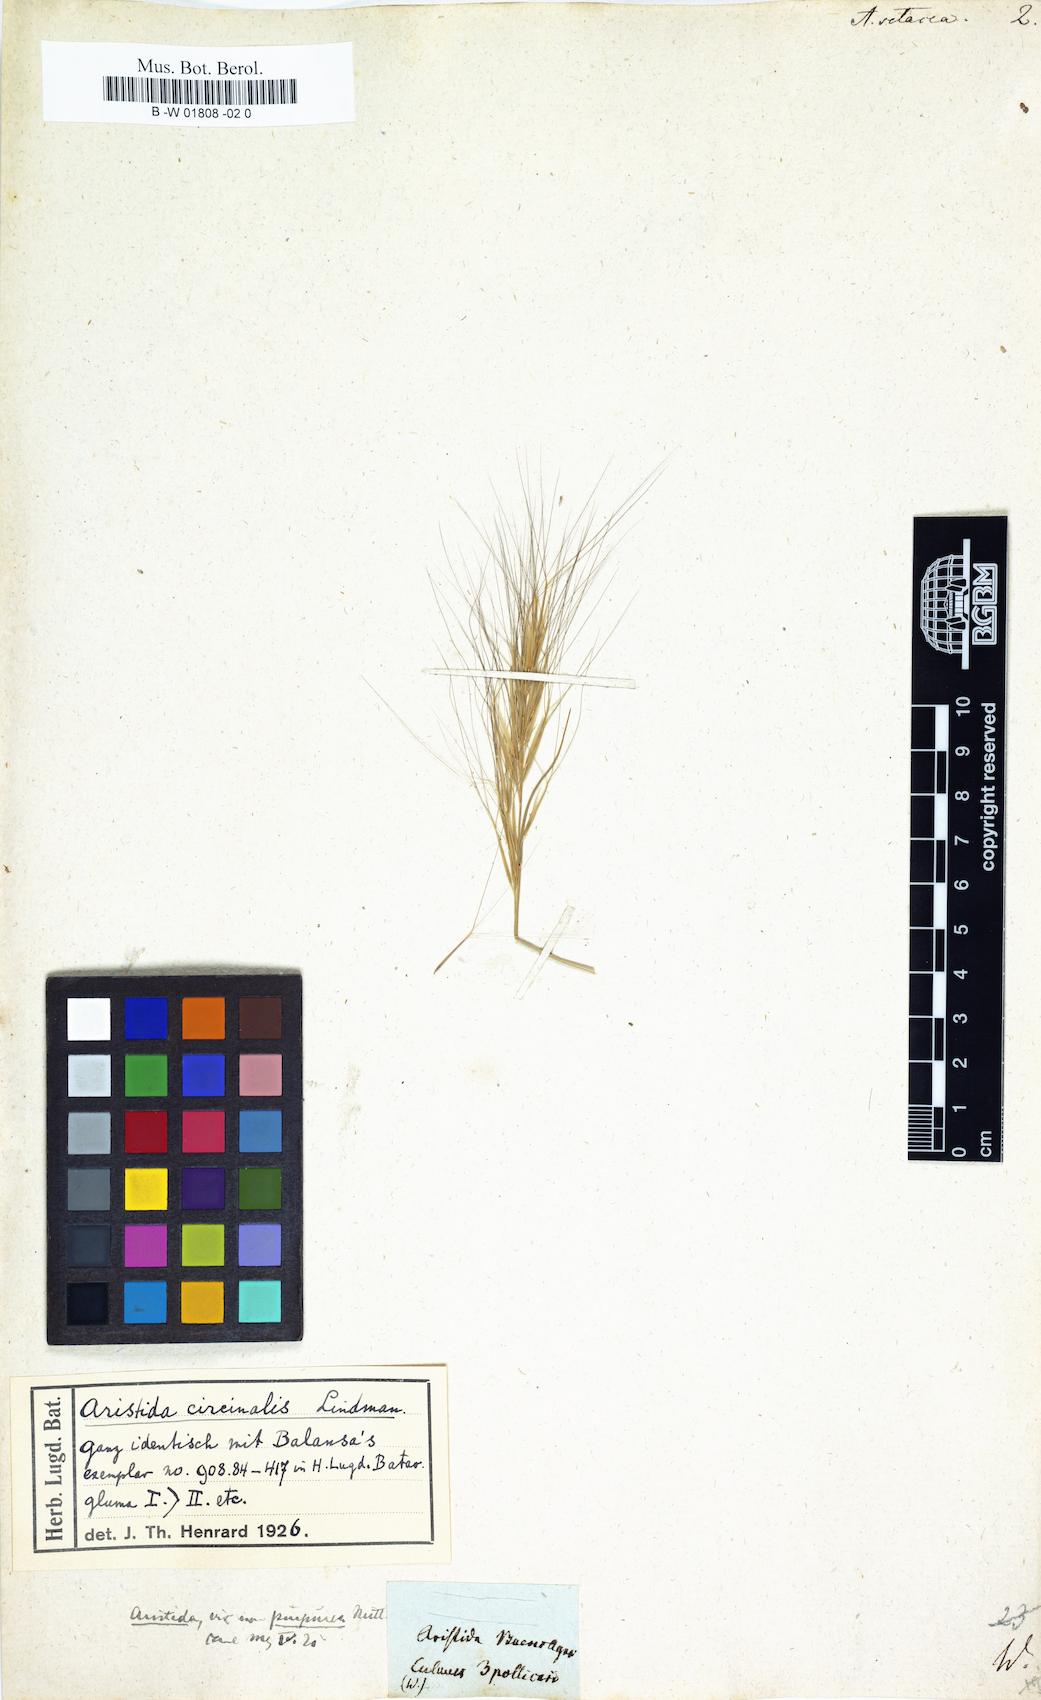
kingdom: Plantae
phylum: Tracheophyta
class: Liliopsida
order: Poales
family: Poaceae
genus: Aristida
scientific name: Aristida setacea
